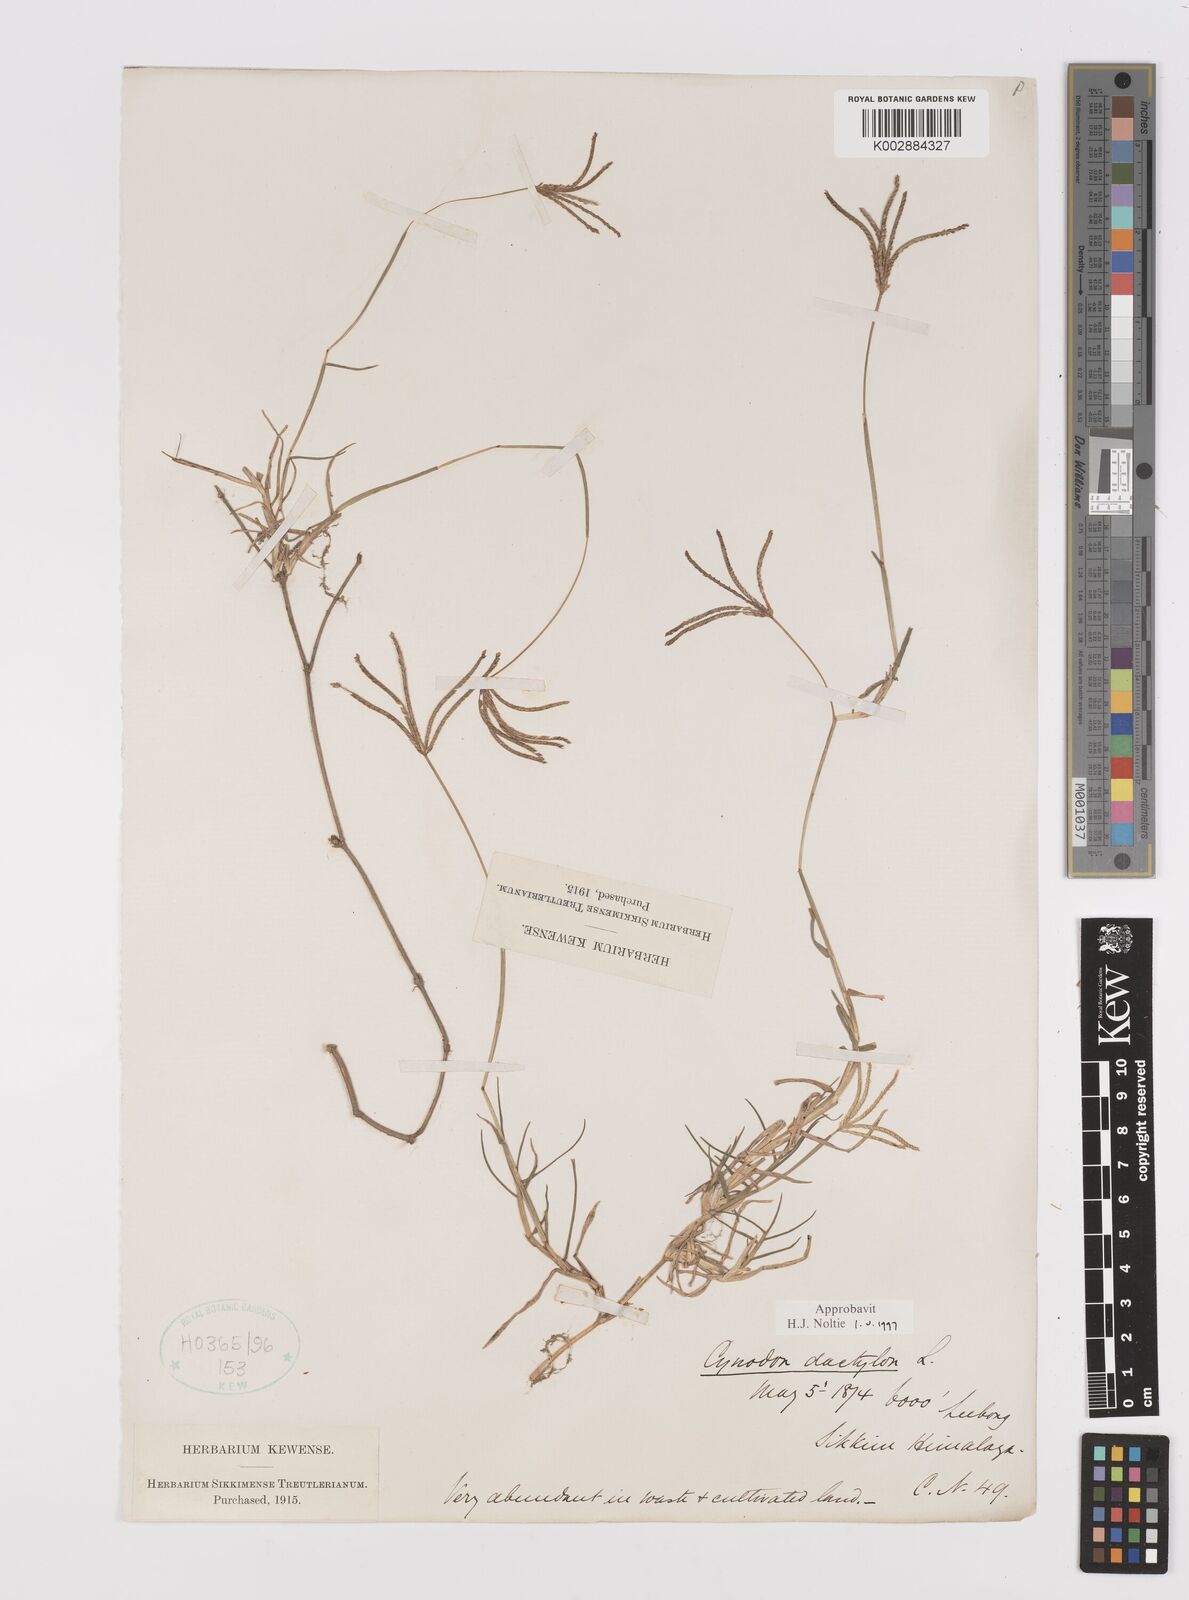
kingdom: Plantae
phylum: Tracheophyta
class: Liliopsida
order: Poales
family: Poaceae
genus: Cynodon
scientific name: Cynodon dactylon
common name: Bermuda grass
